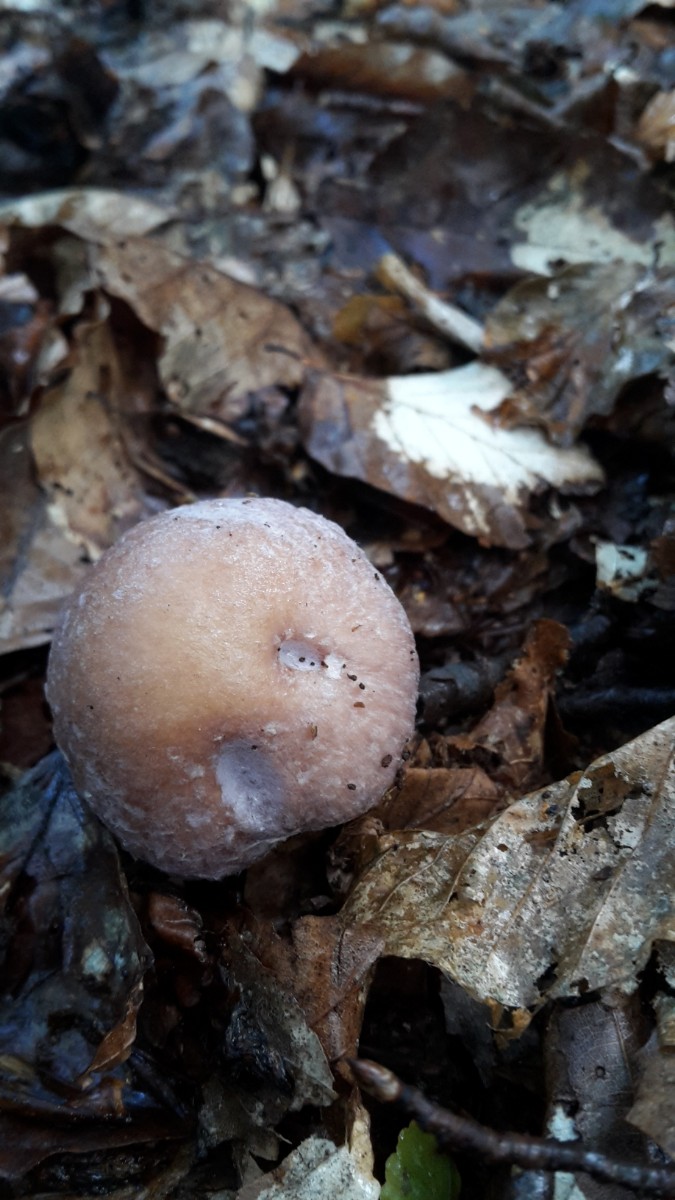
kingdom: Fungi
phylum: Basidiomycota
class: Agaricomycetes
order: Agaricales
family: Cortinariaceae
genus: Cortinarius
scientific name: Cortinarius caperatus
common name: klidhat
